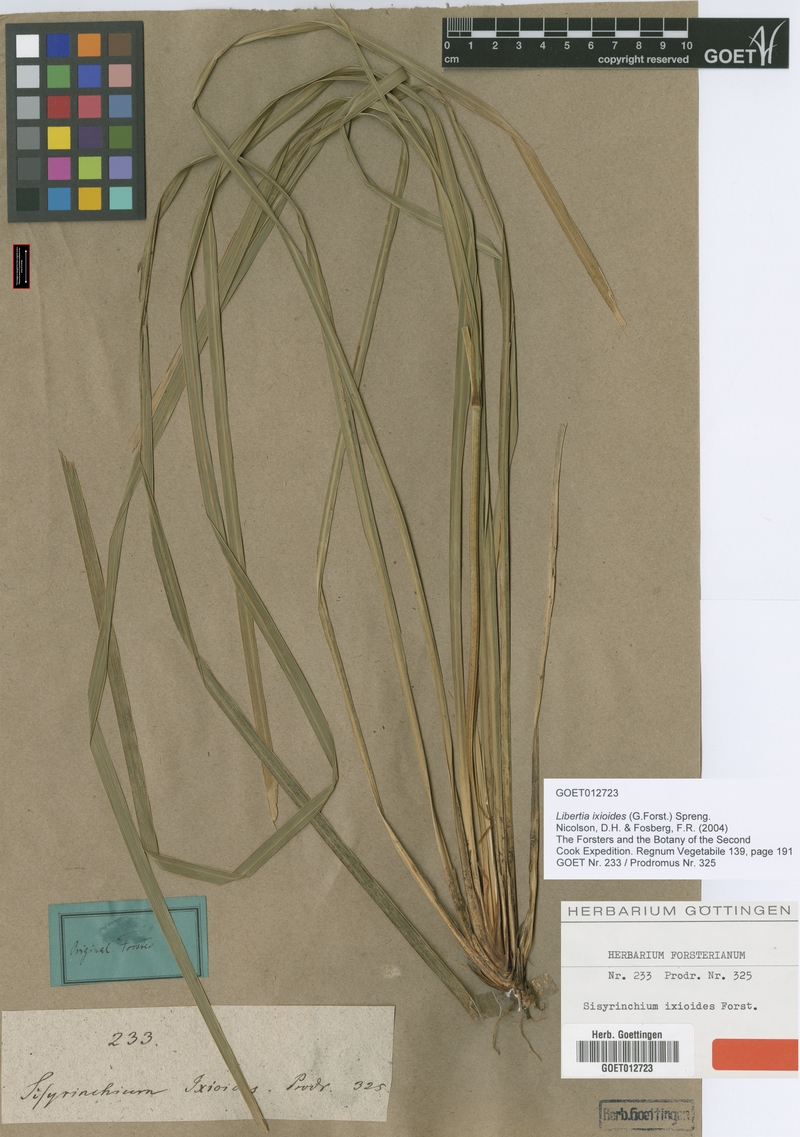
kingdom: Plantae
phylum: Tracheophyta
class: Liliopsida
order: Asparagales
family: Iridaceae
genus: Libertia
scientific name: Libertia ixioides
